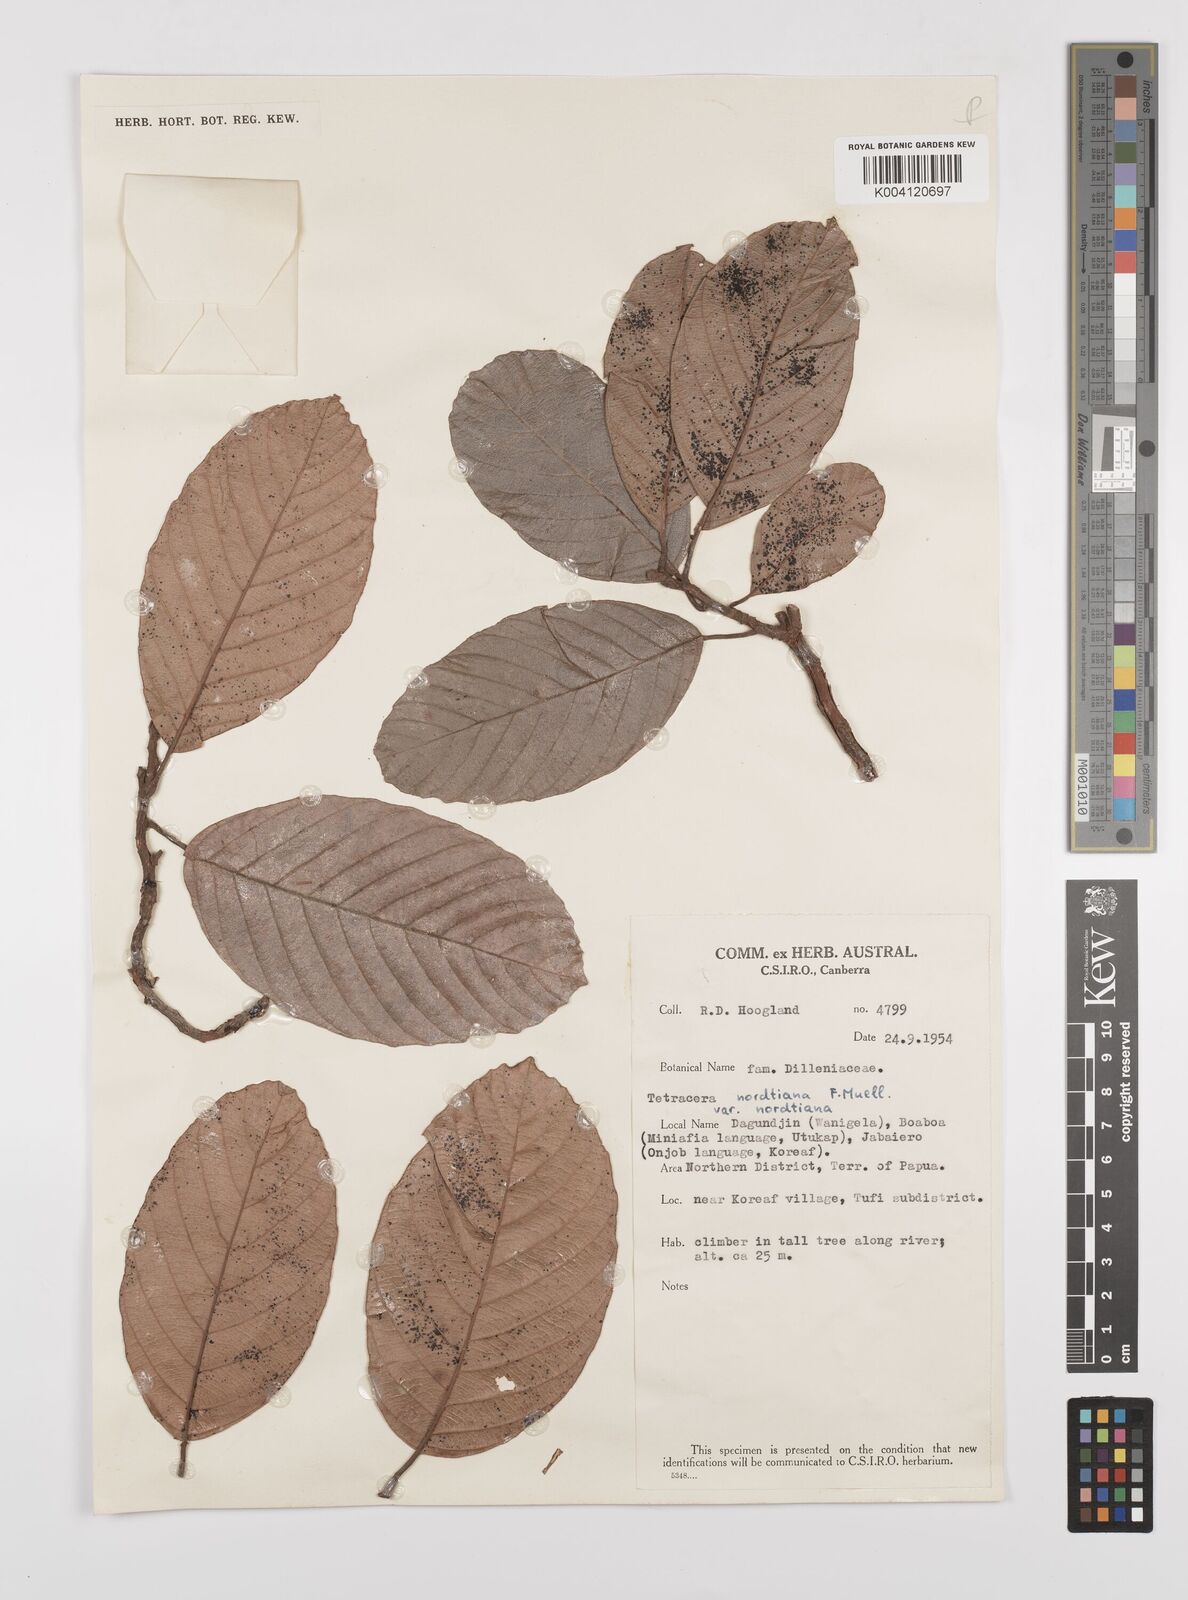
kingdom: Plantae
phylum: Tracheophyta
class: Magnoliopsida
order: Dilleniales
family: Dilleniaceae
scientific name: Dilleniaceae
